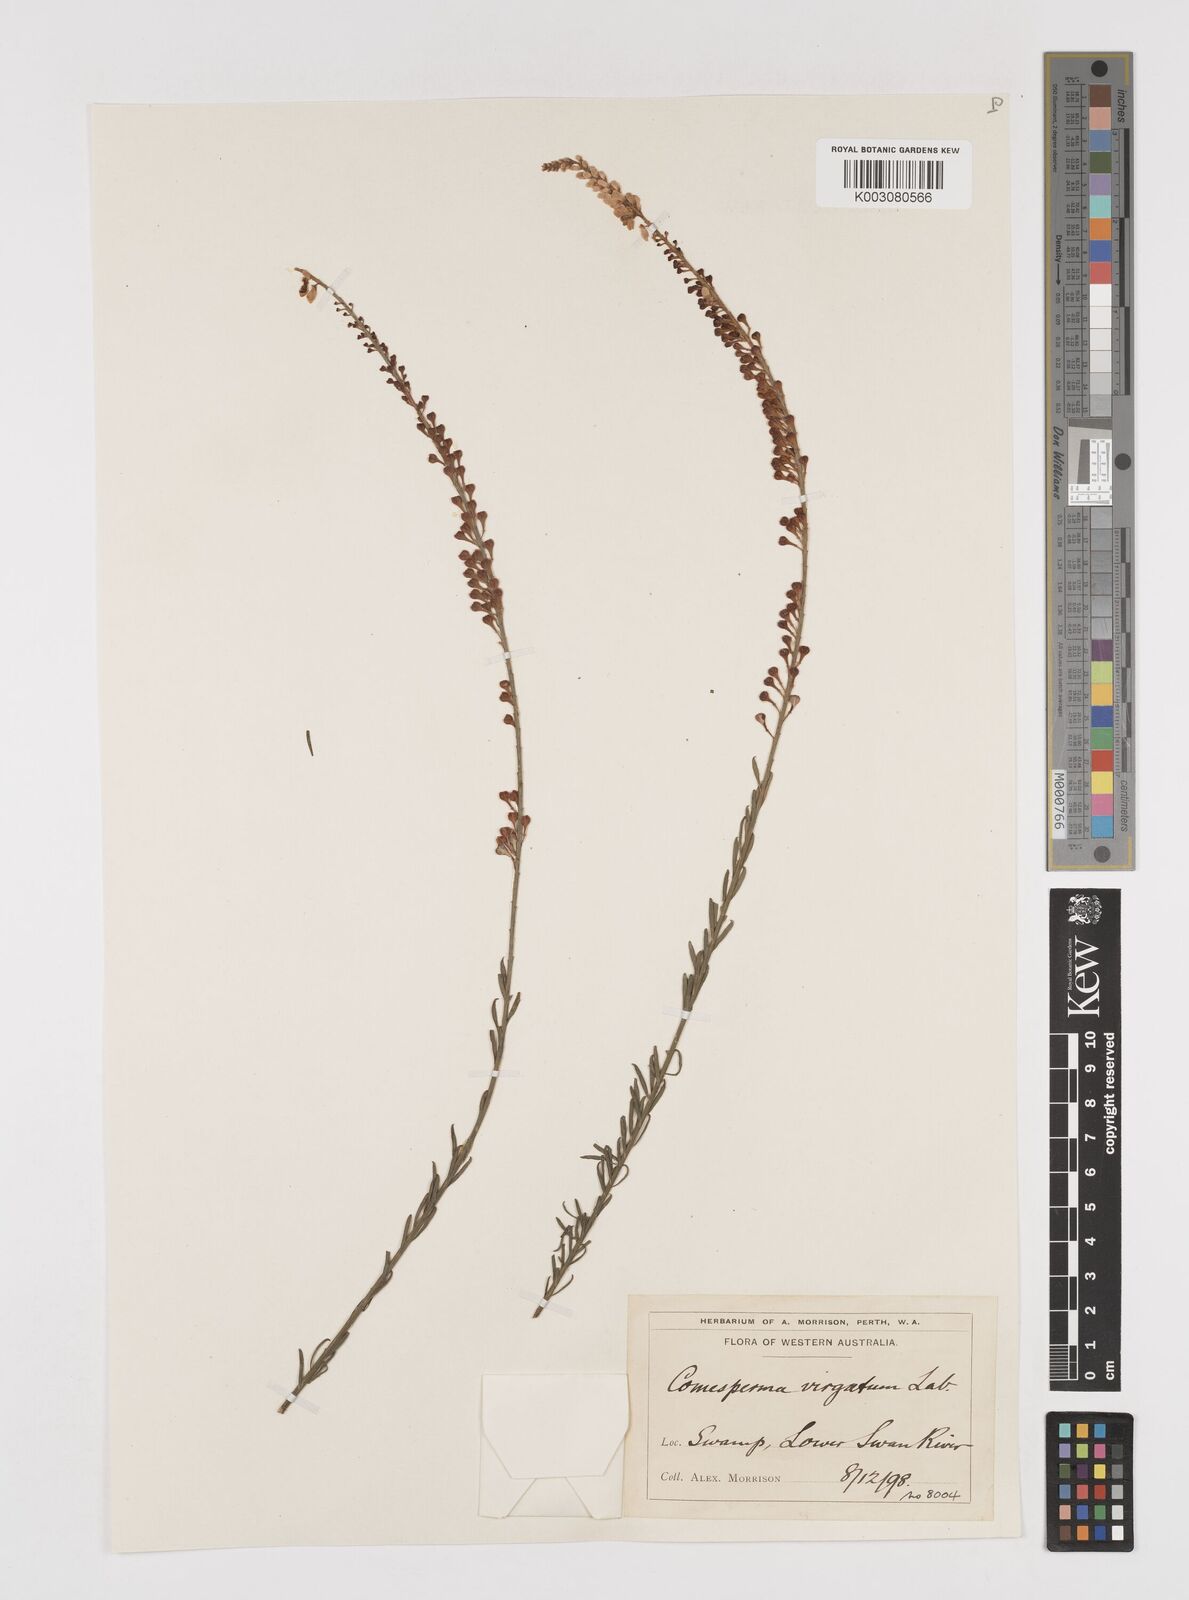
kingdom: Plantae
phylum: Tracheophyta
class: Magnoliopsida
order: Fabales
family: Polygalaceae
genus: Comesperma
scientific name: Comesperma virgatum
